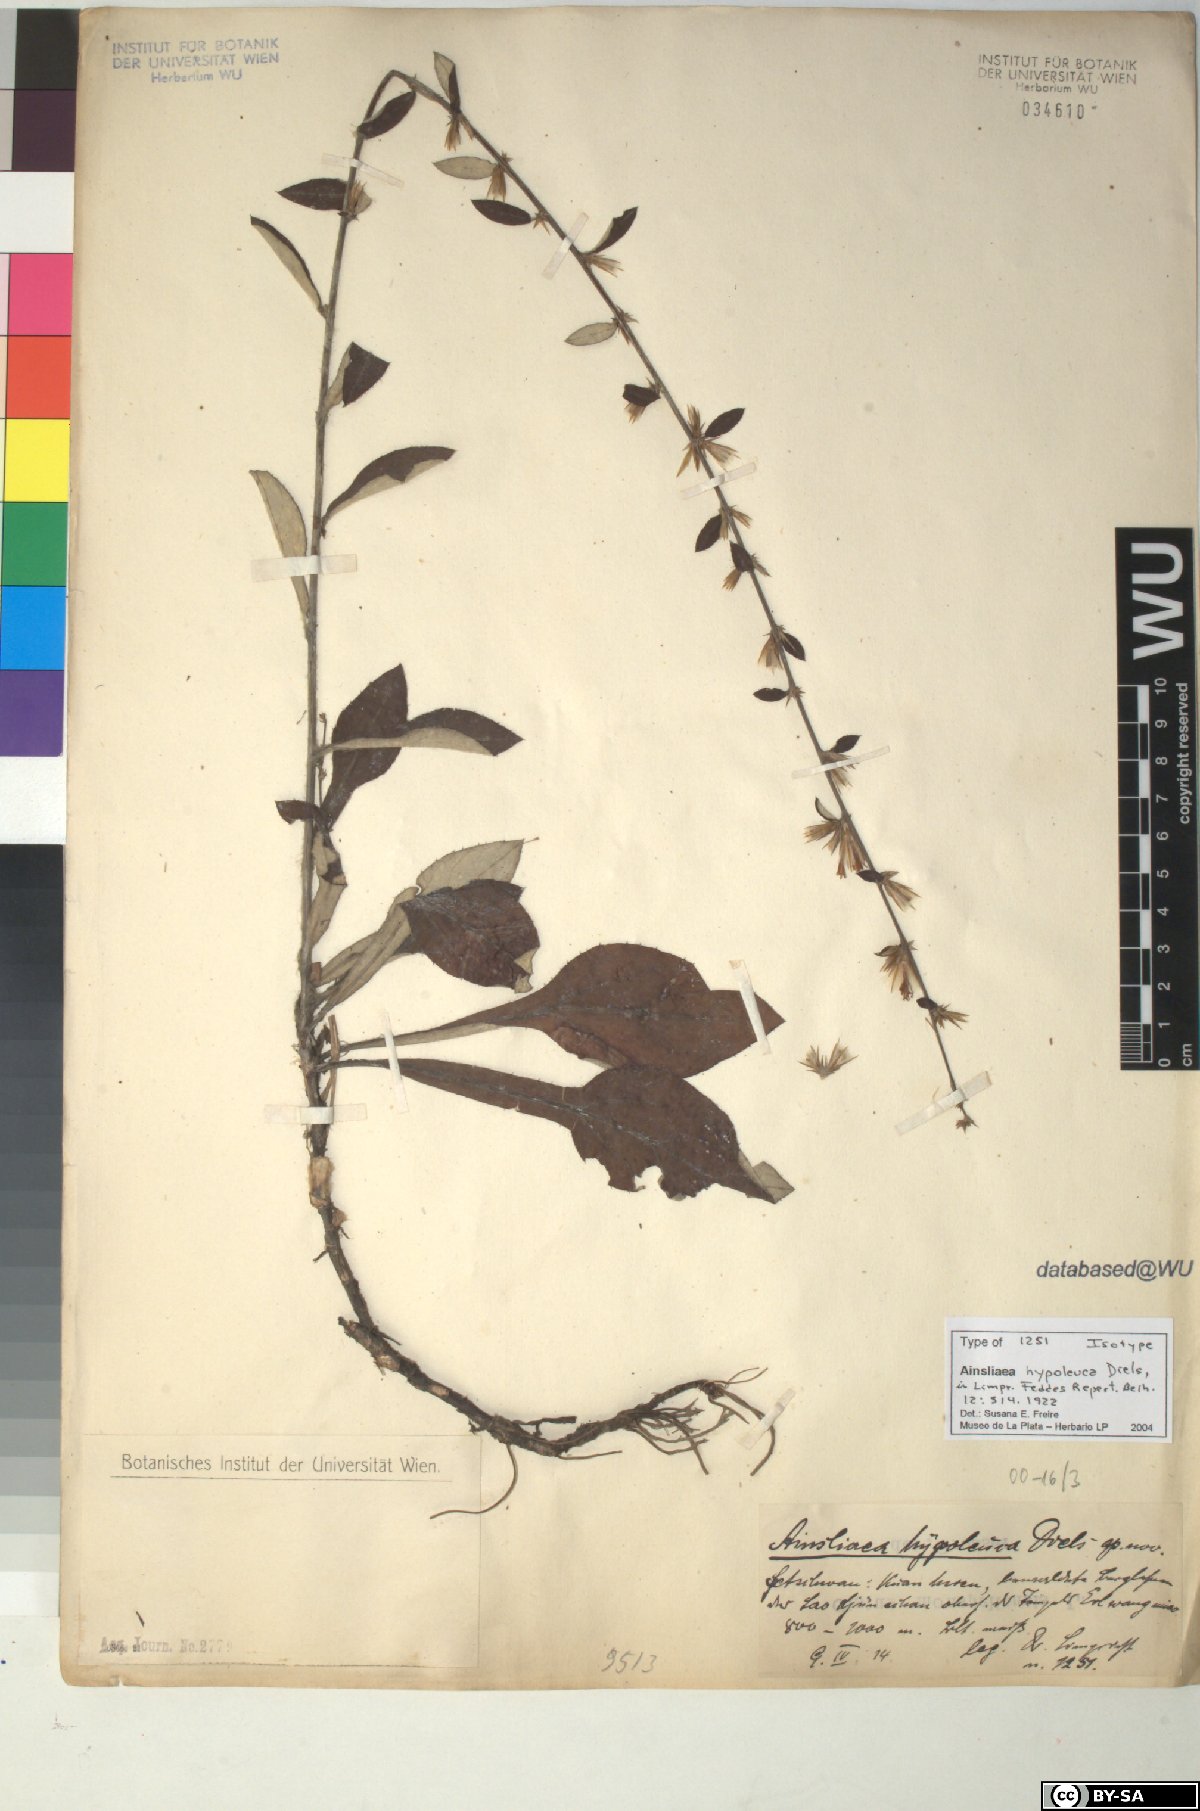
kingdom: Plantae
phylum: Tracheophyta
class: Magnoliopsida
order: Asterales
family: Asteraceae
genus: Ainsliaea
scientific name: Ainsliaea latifolia
